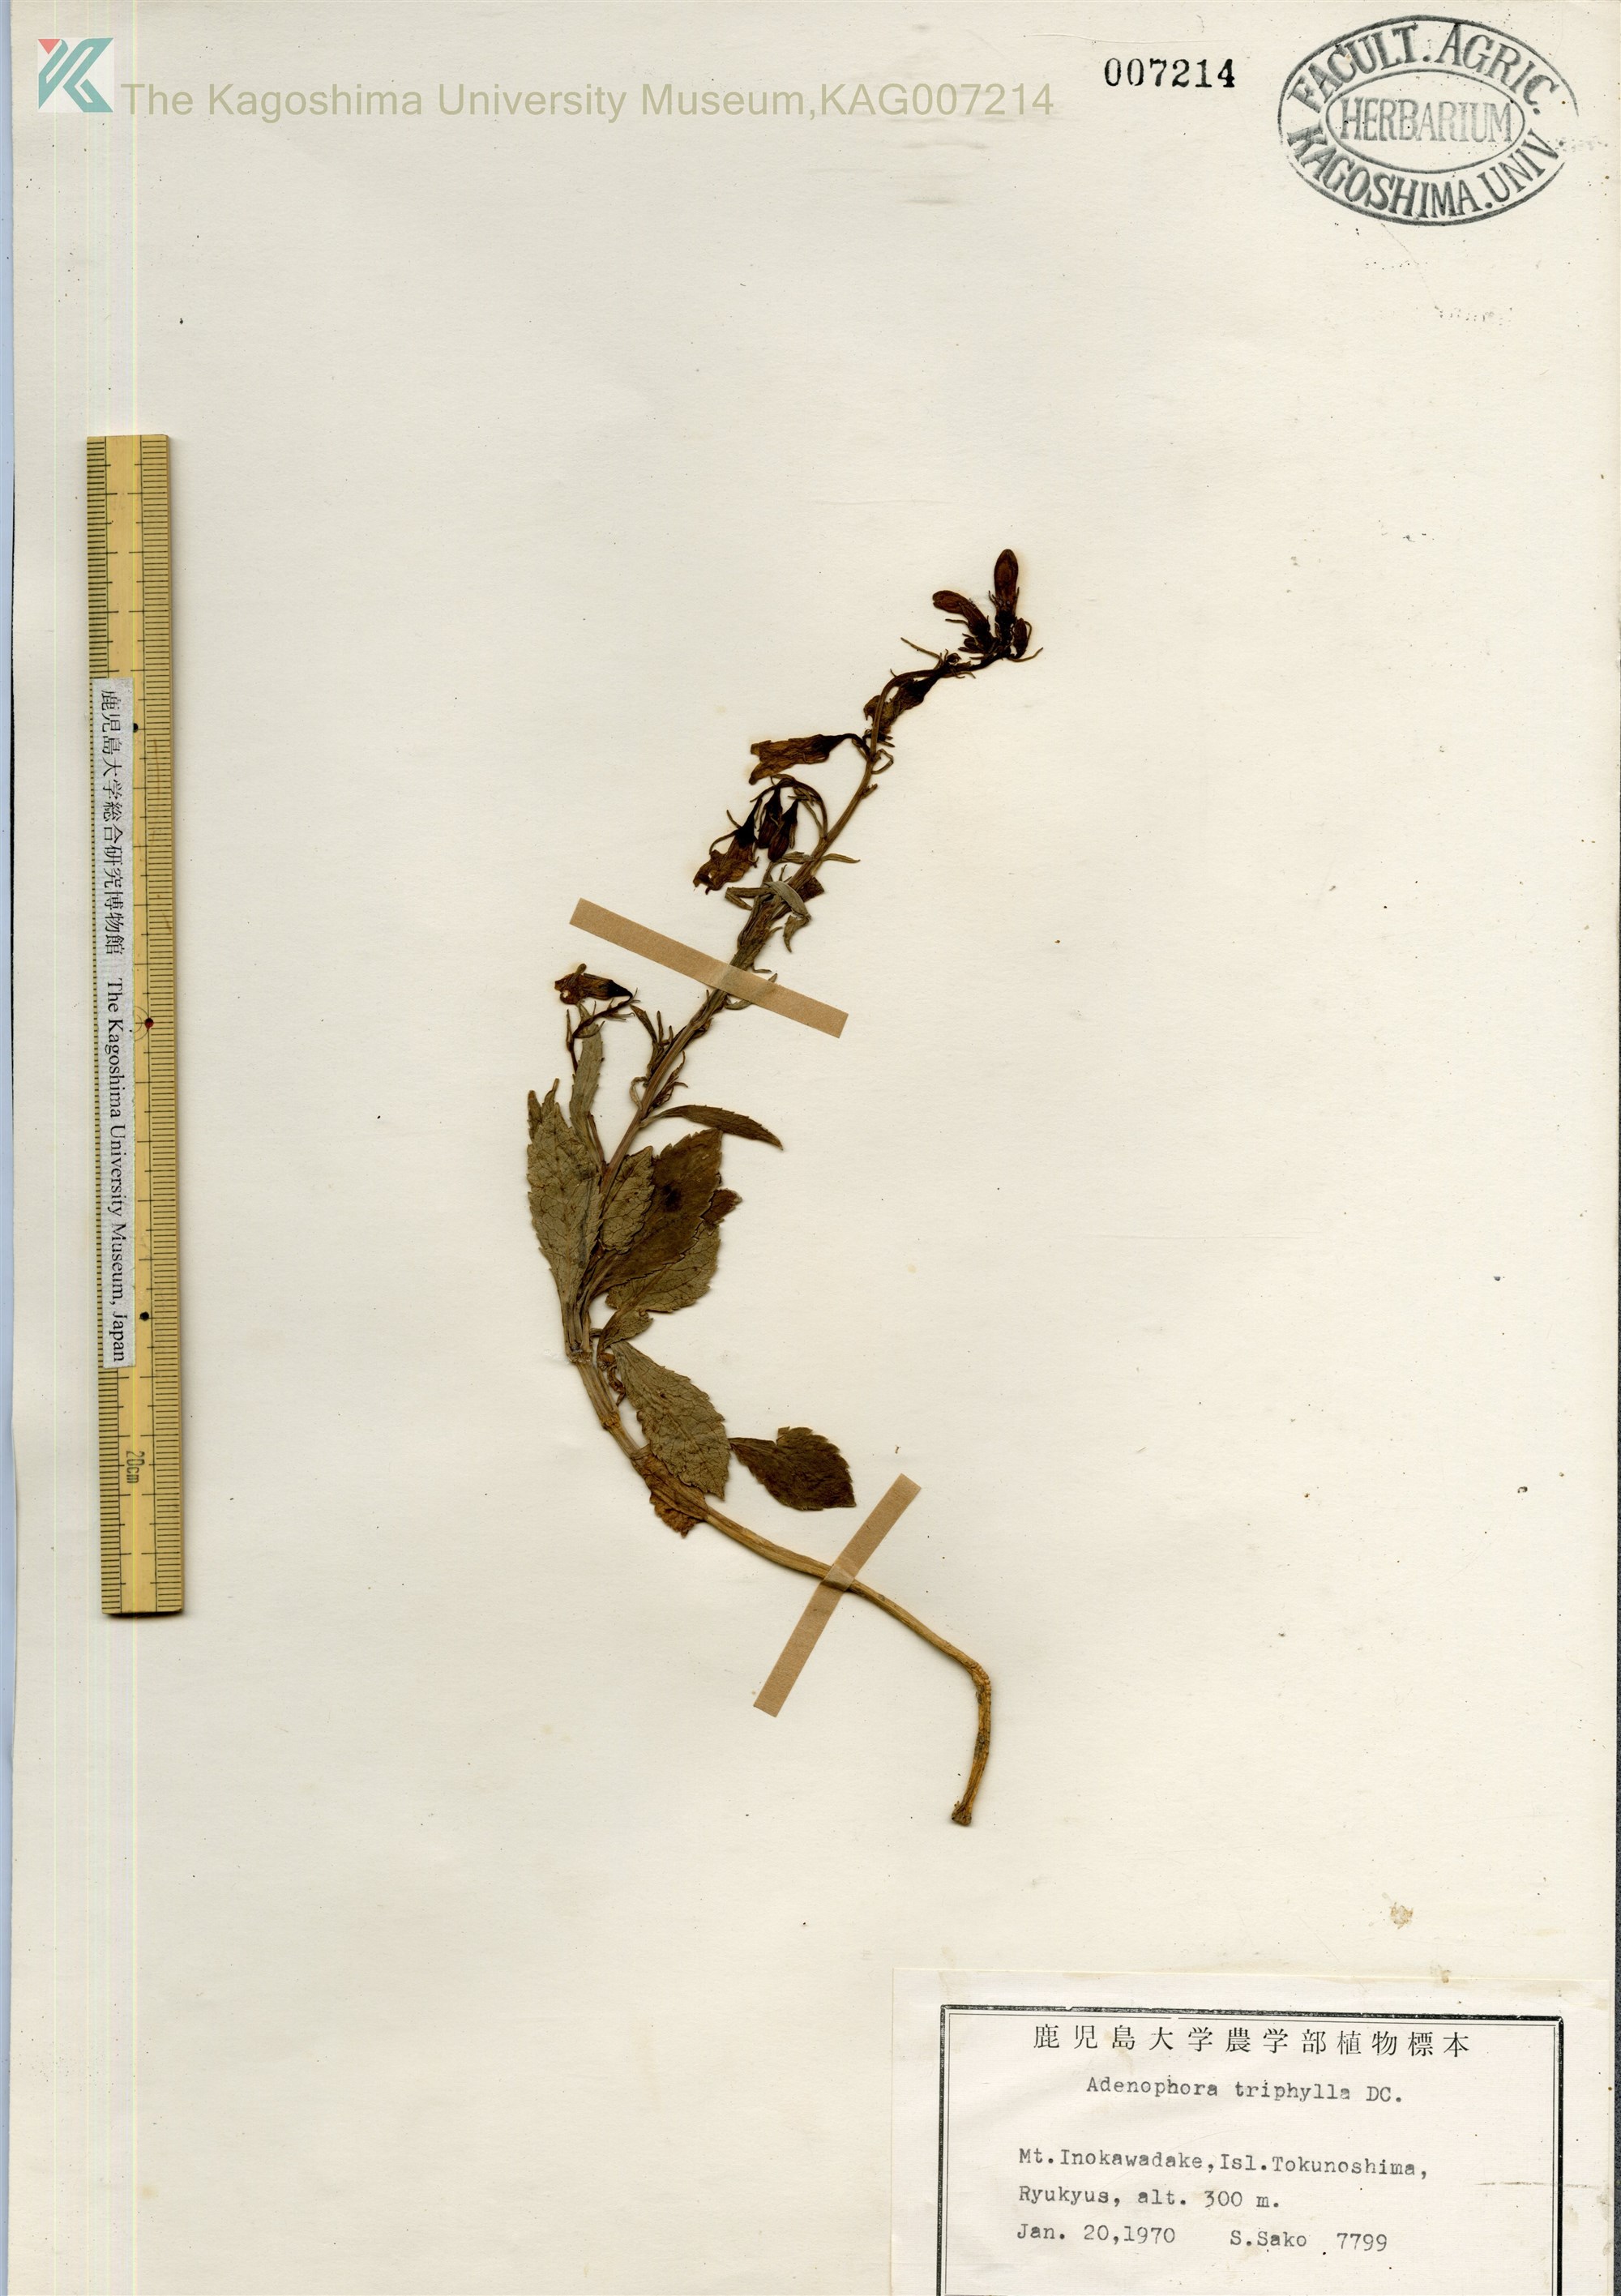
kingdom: Plantae
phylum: Tracheophyta
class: Magnoliopsida
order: Asterales
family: Campanulaceae
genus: Adenophora
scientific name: Adenophora tashiroi
